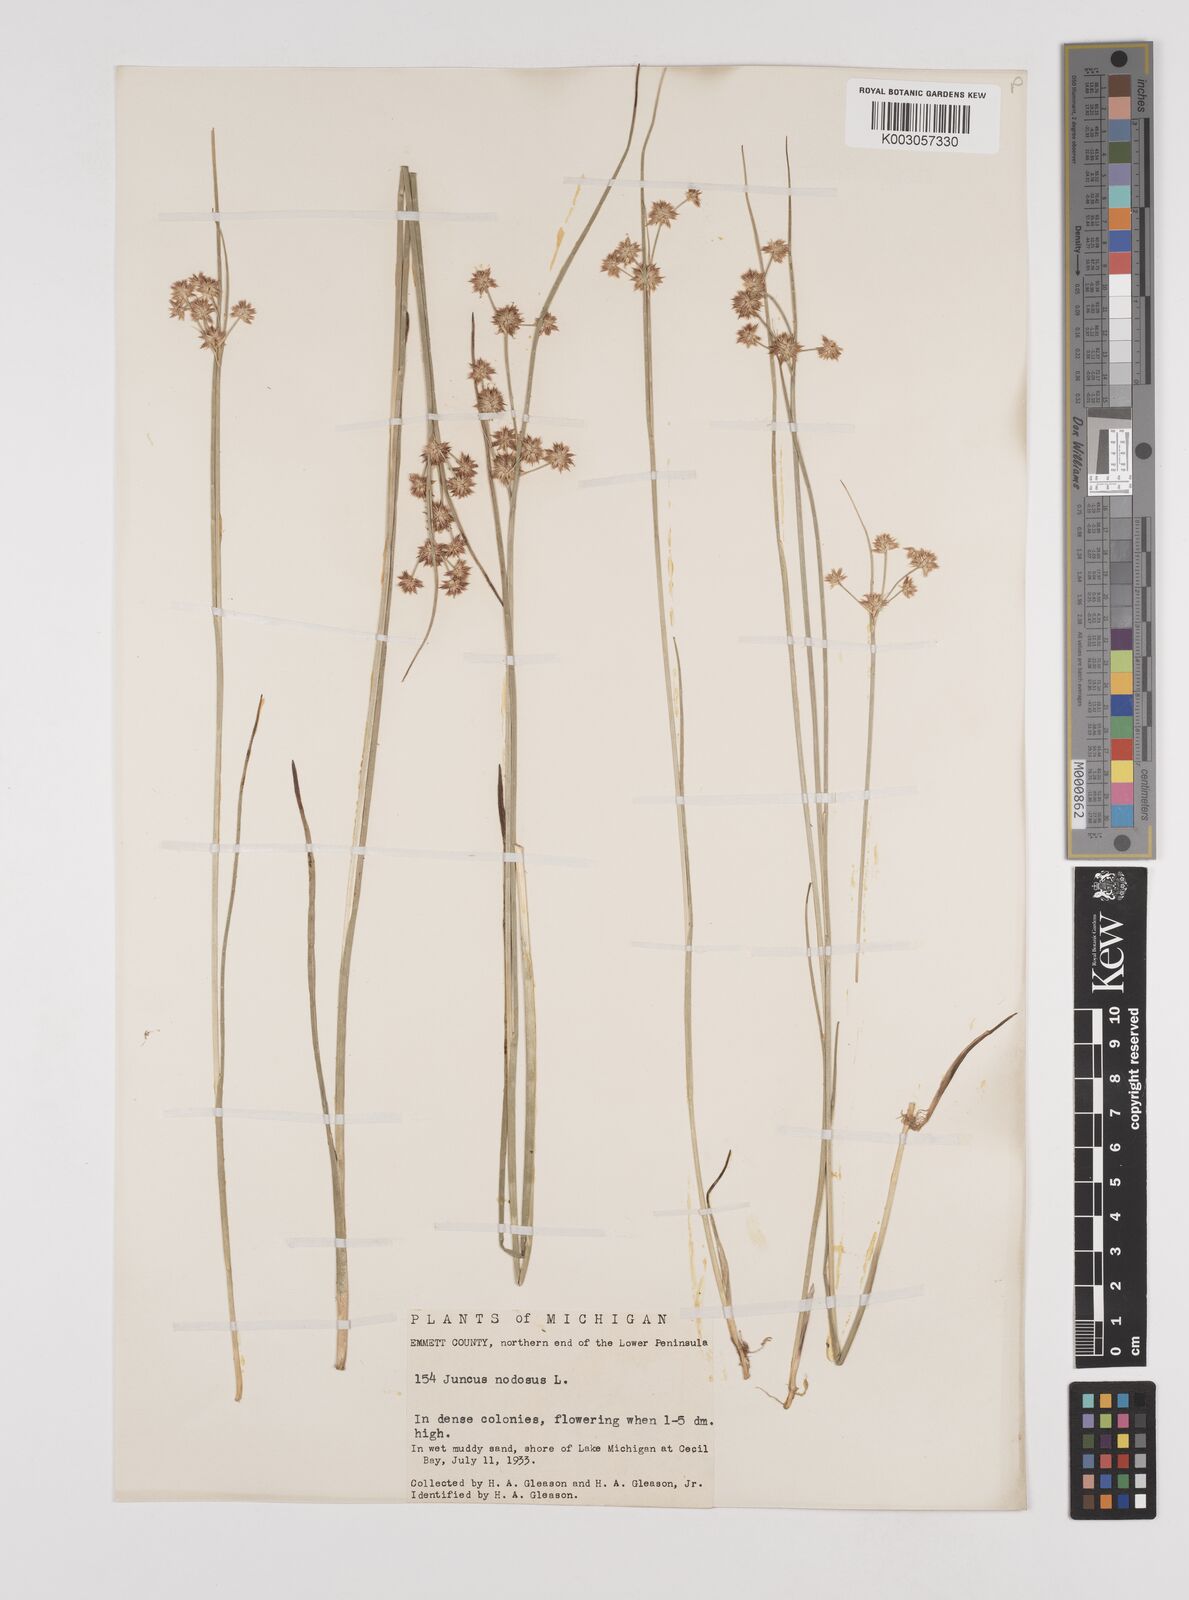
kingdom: Plantae
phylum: Tracheophyta
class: Liliopsida
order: Poales
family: Juncaceae
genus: Juncus
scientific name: Juncus nodosus
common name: Knotted rush
